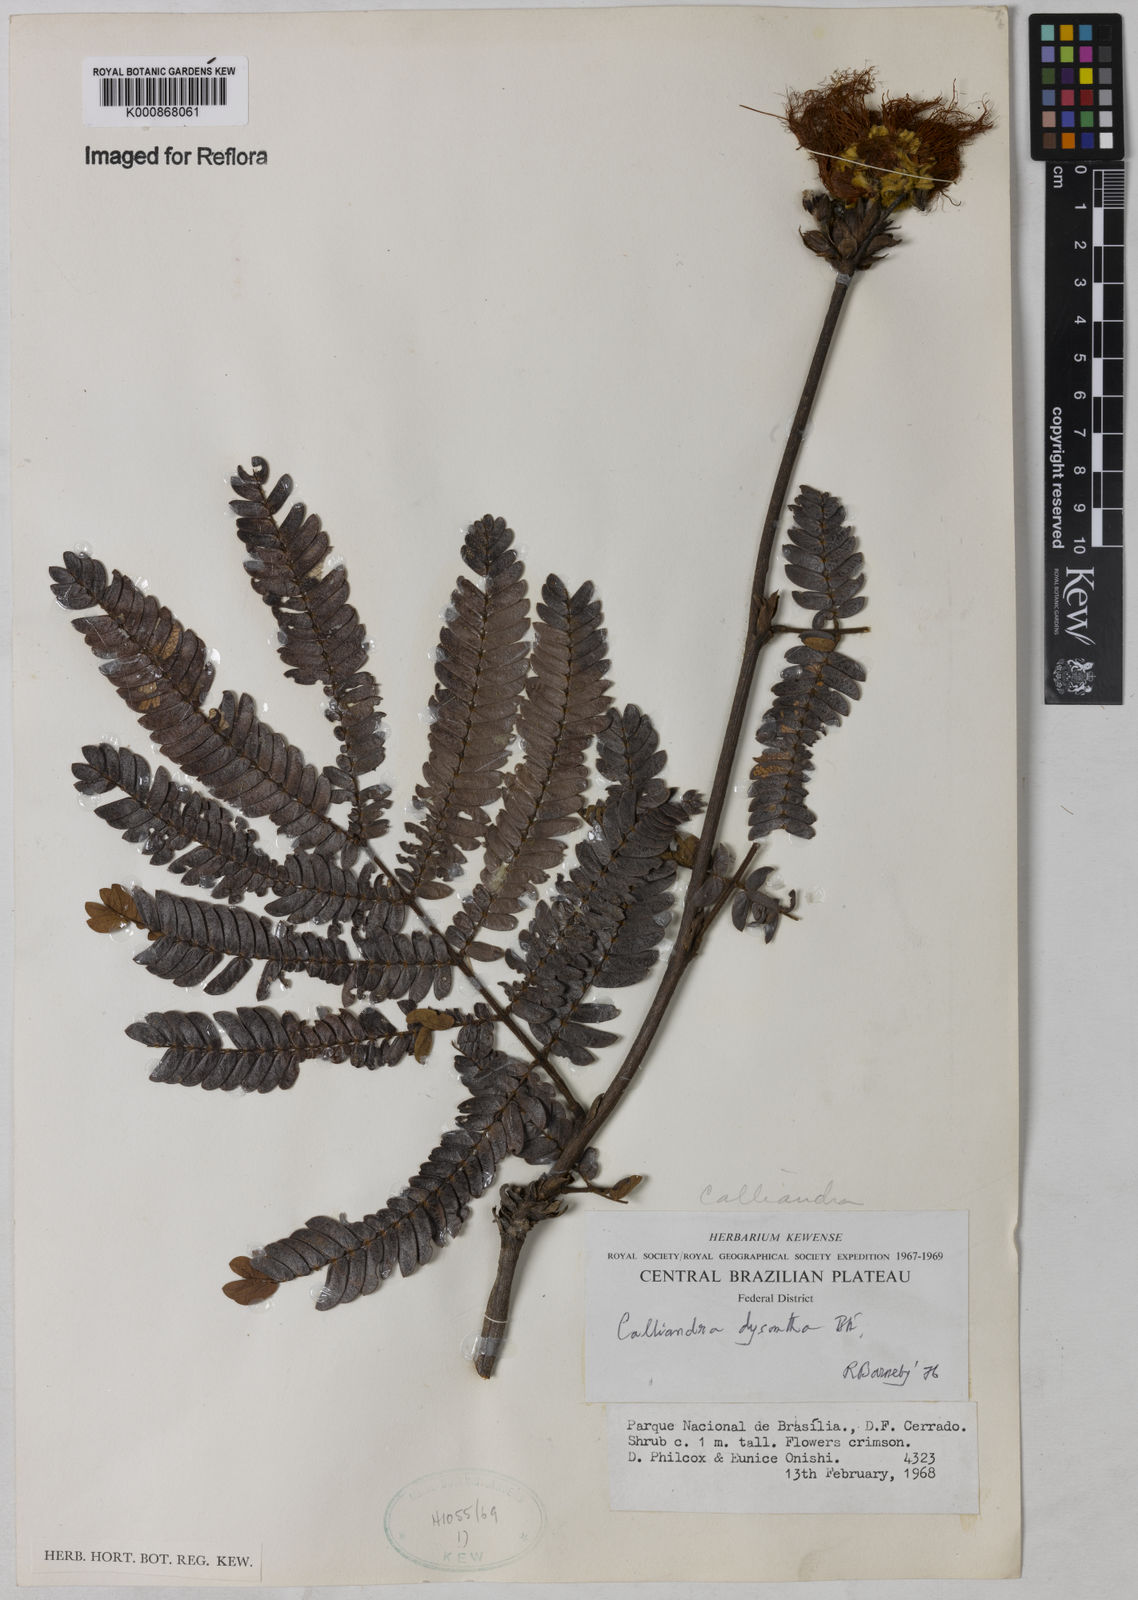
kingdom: Plantae
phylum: Tracheophyta
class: Magnoliopsida
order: Fabales
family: Fabaceae
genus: Calliandra
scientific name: Calliandra dysantha
